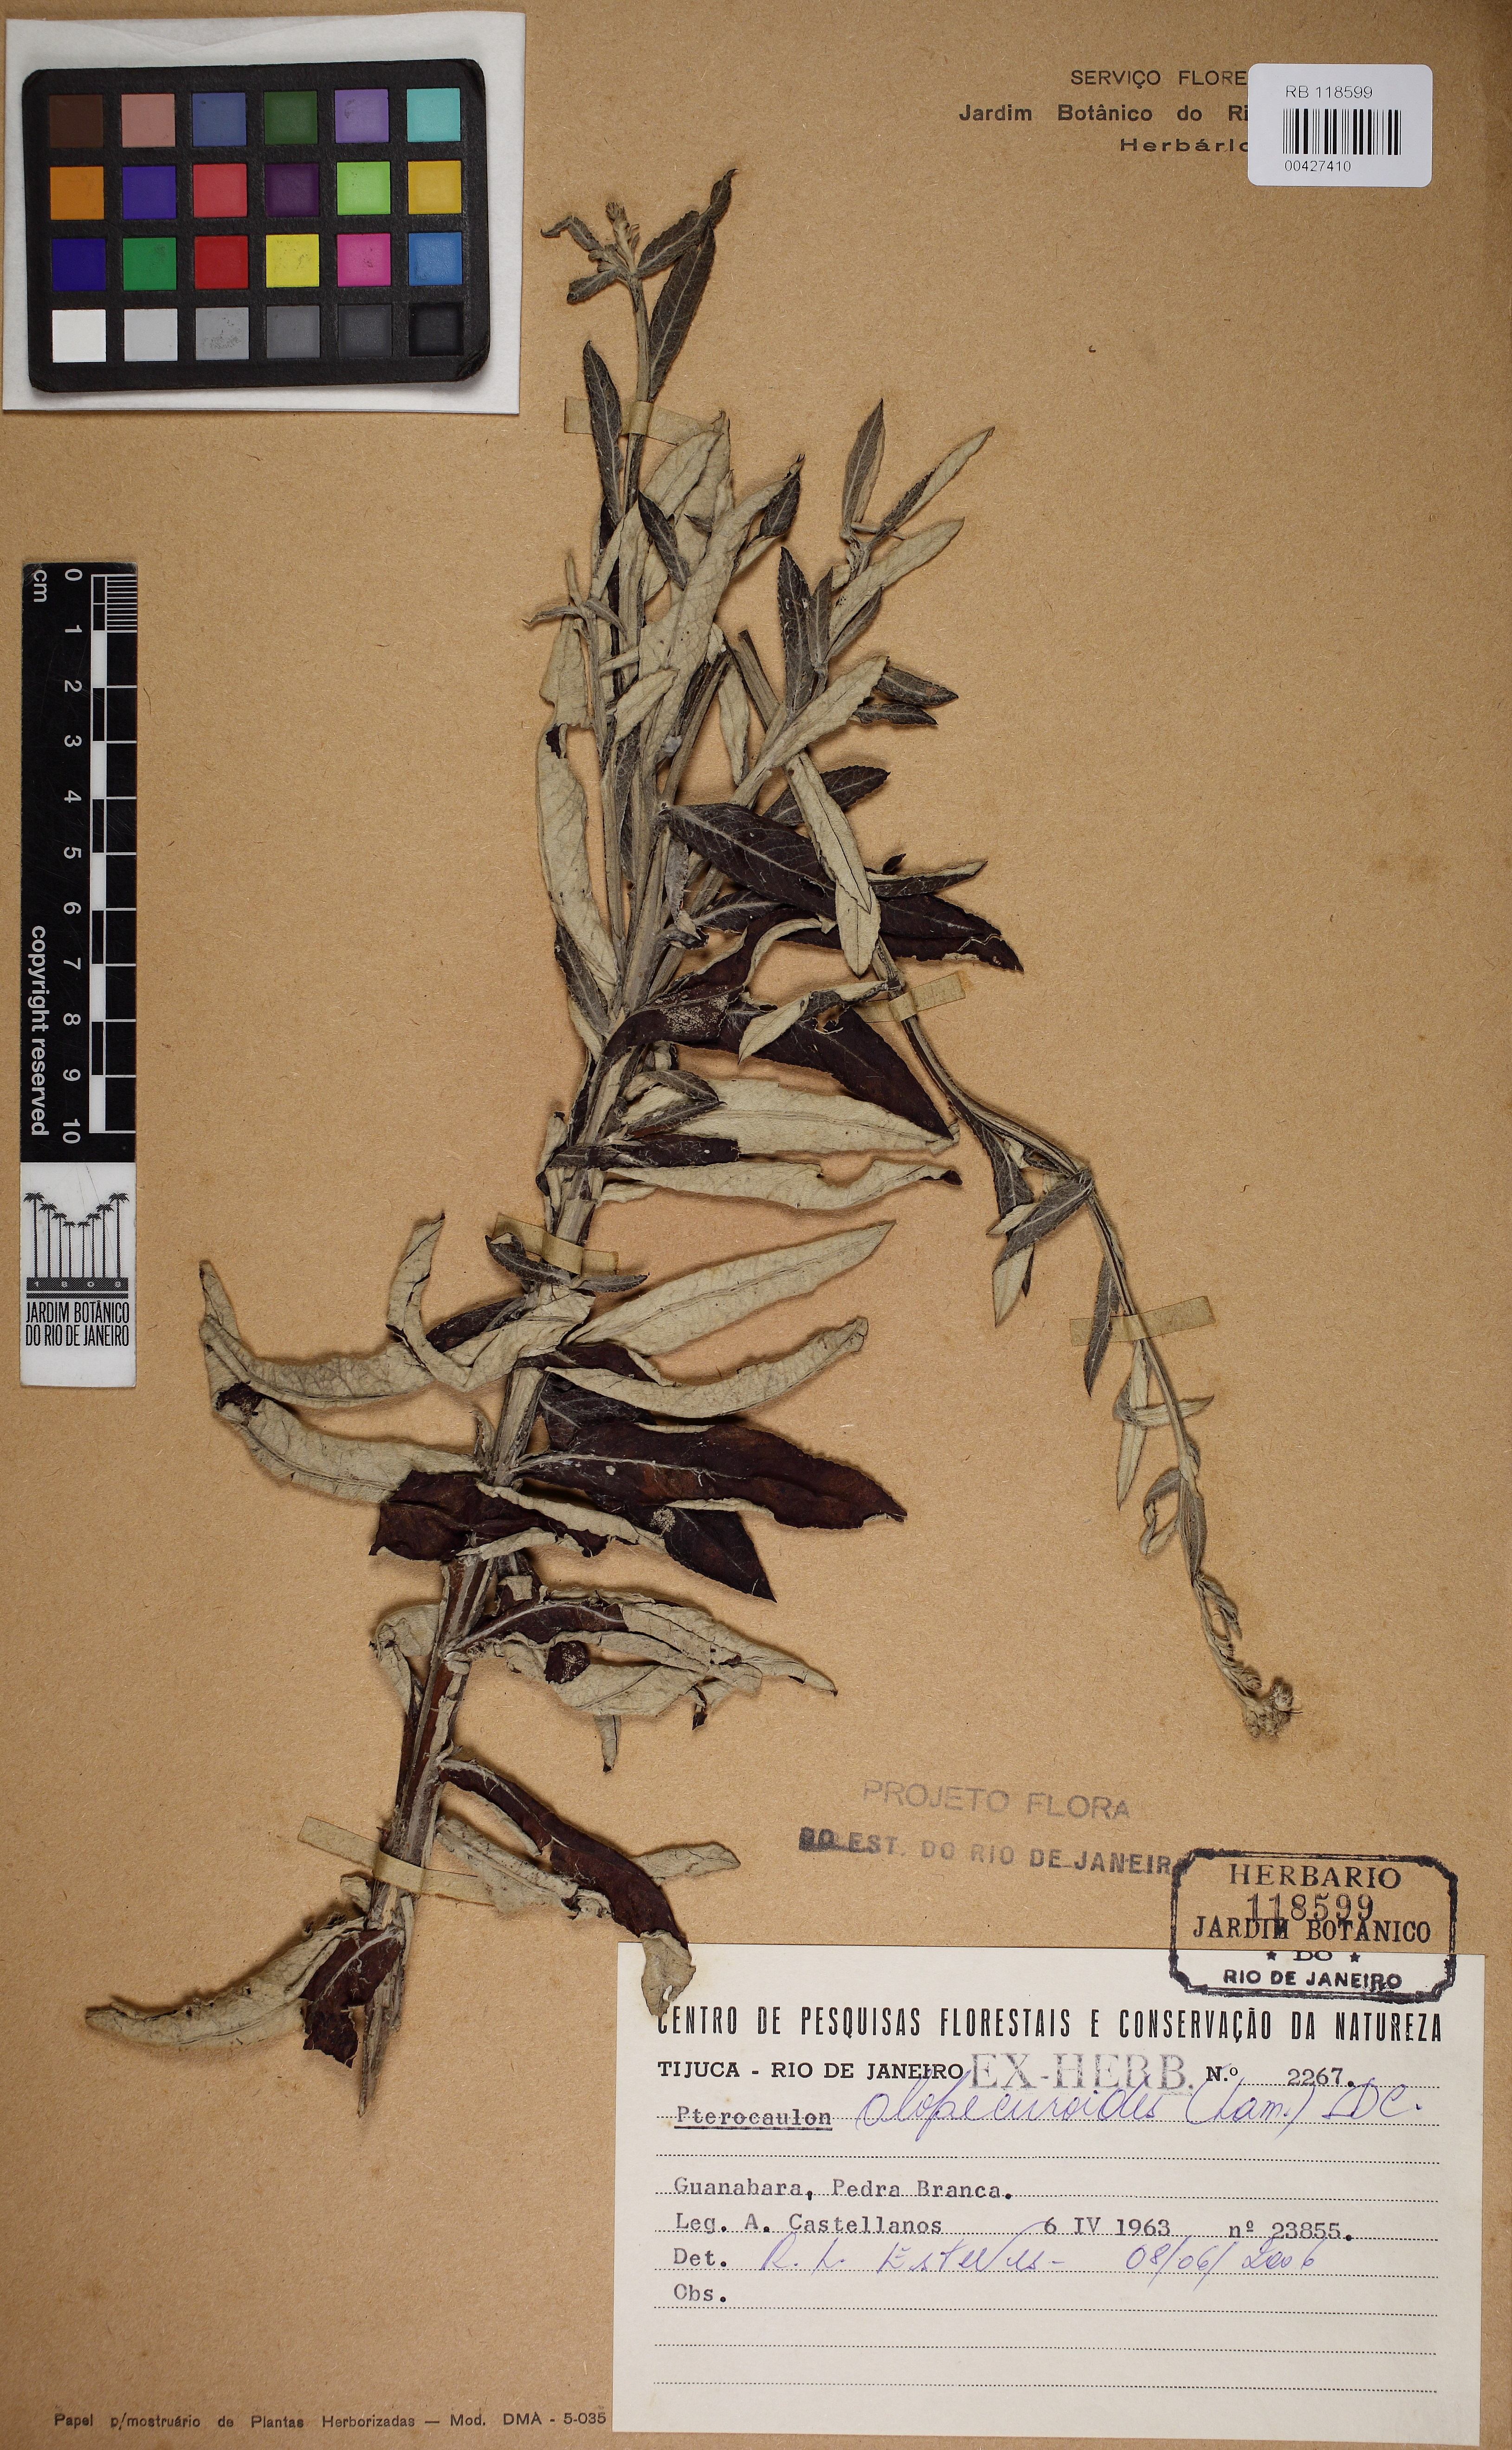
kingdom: Plantae
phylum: Tracheophyta
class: Magnoliopsida
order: Asterales
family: Asteraceae
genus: Pterocaulon
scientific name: Pterocaulon balansae
